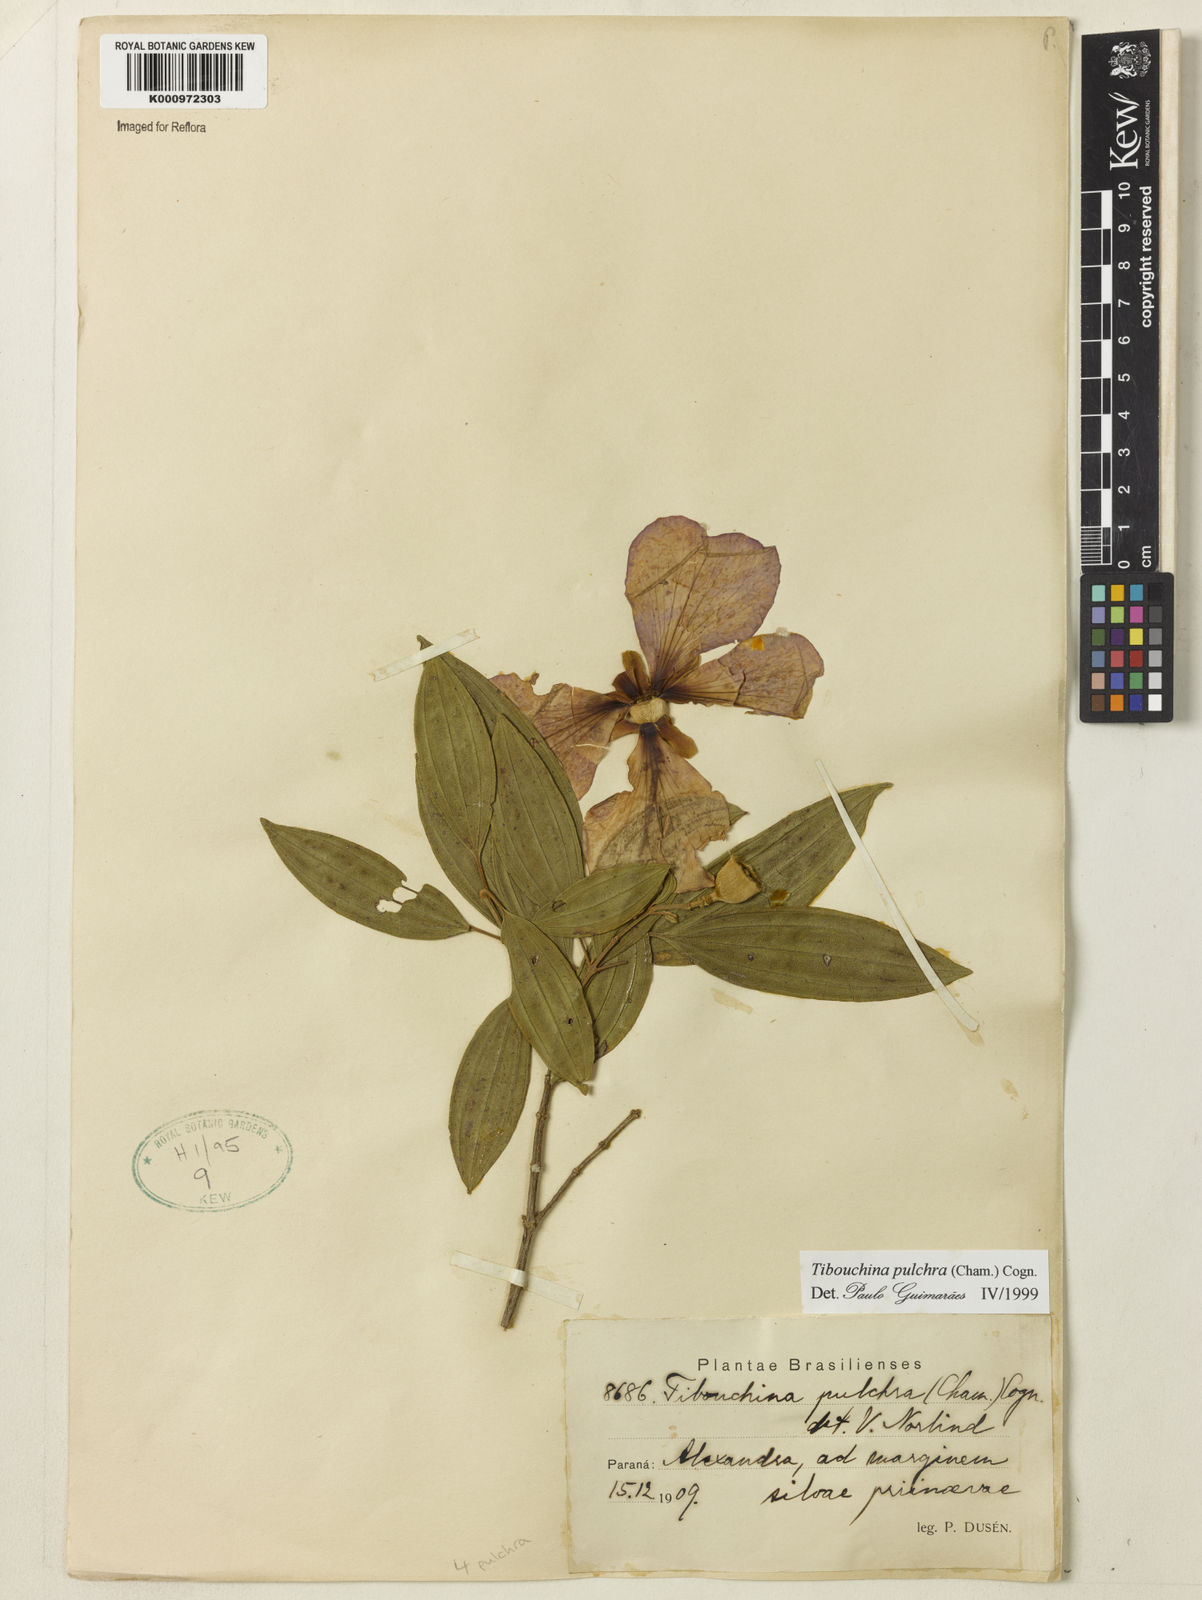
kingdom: Plantae
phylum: Tracheophyta
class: Magnoliopsida
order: Myrtales
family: Melastomataceae
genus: Pleroma
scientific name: Pleroma raddianum
